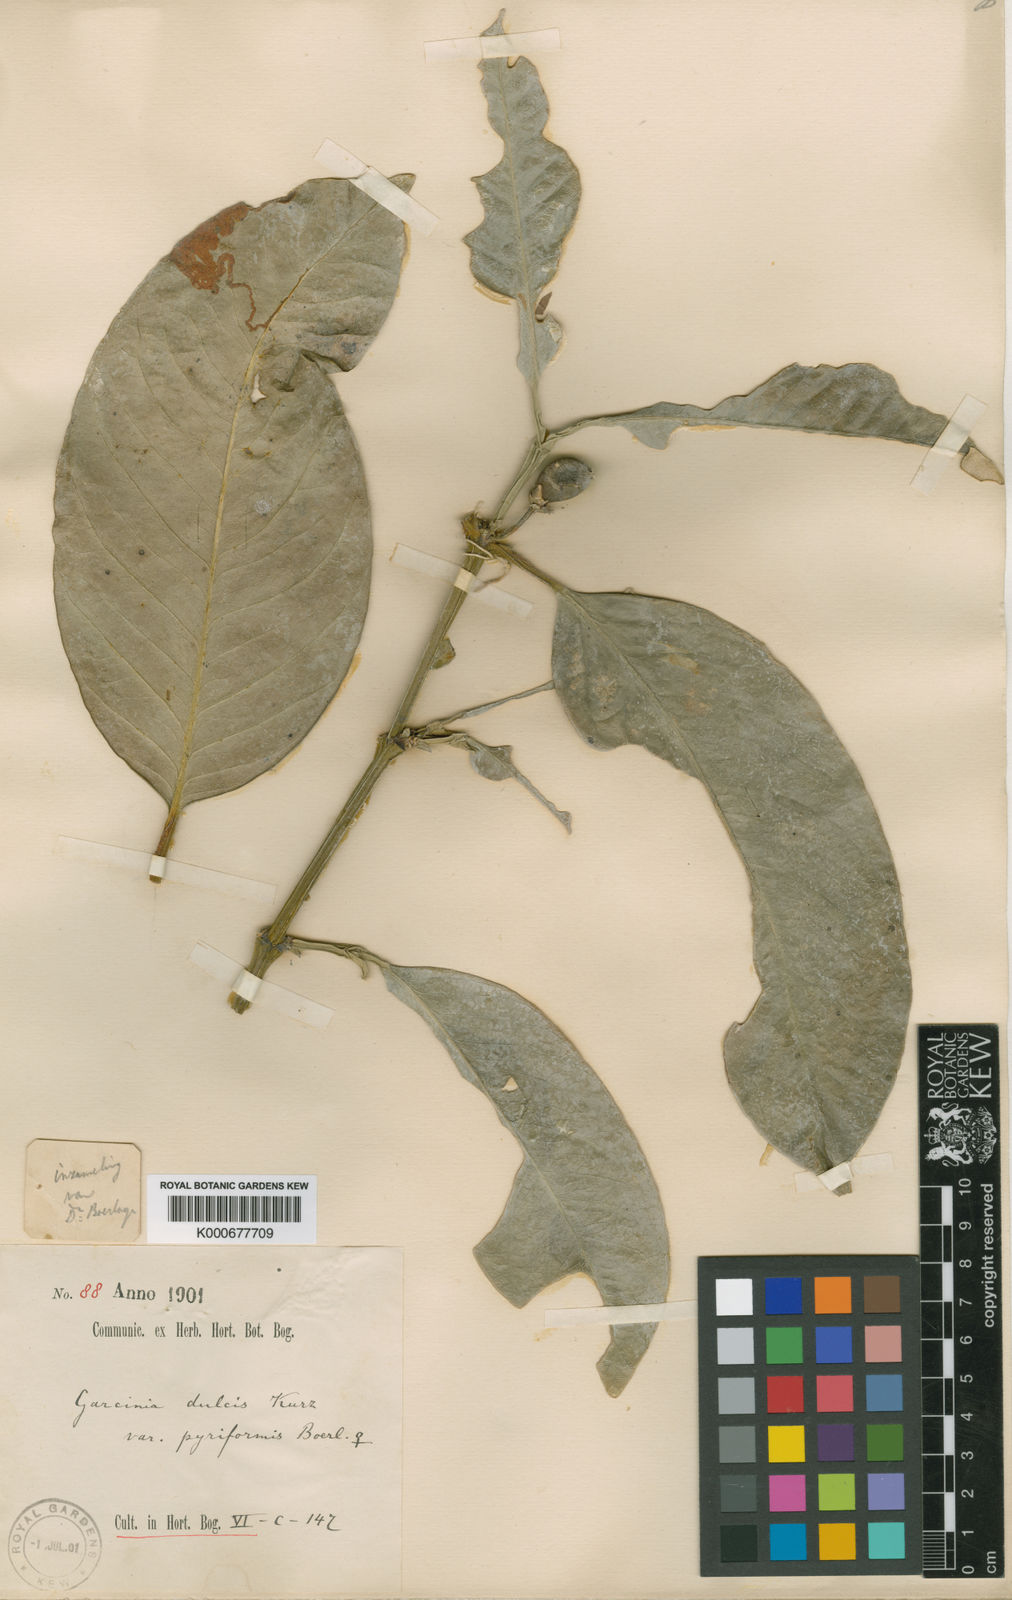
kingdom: Plantae
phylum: Tracheophyta
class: Magnoliopsida
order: Malpighiales
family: Clusiaceae
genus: Garcinia
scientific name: Garcinia dulcis
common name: Eggtree
